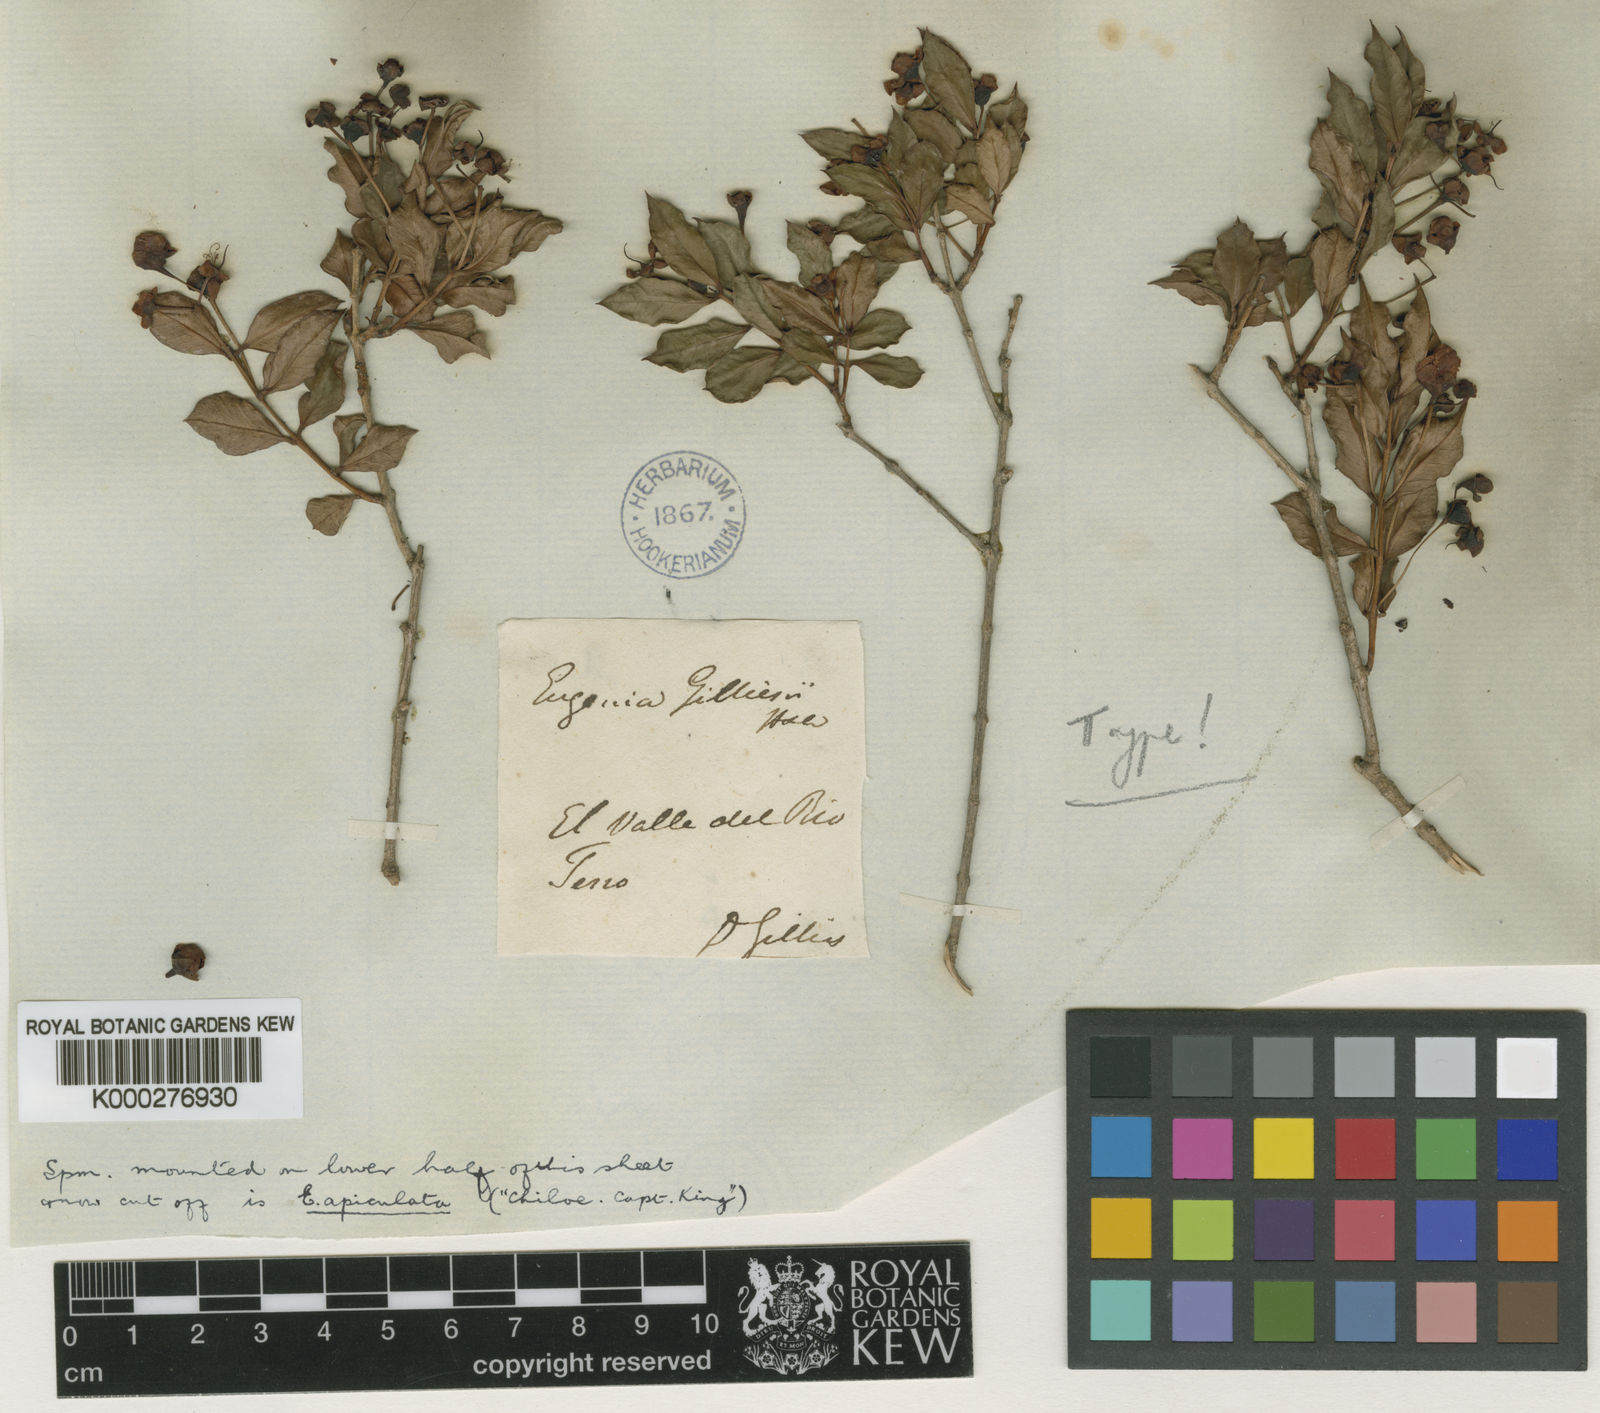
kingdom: Plantae
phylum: Tracheophyta
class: Magnoliopsida
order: Myrtales
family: Myrtaceae
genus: Luma
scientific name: Luma apiculata
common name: Chilean myrtle
